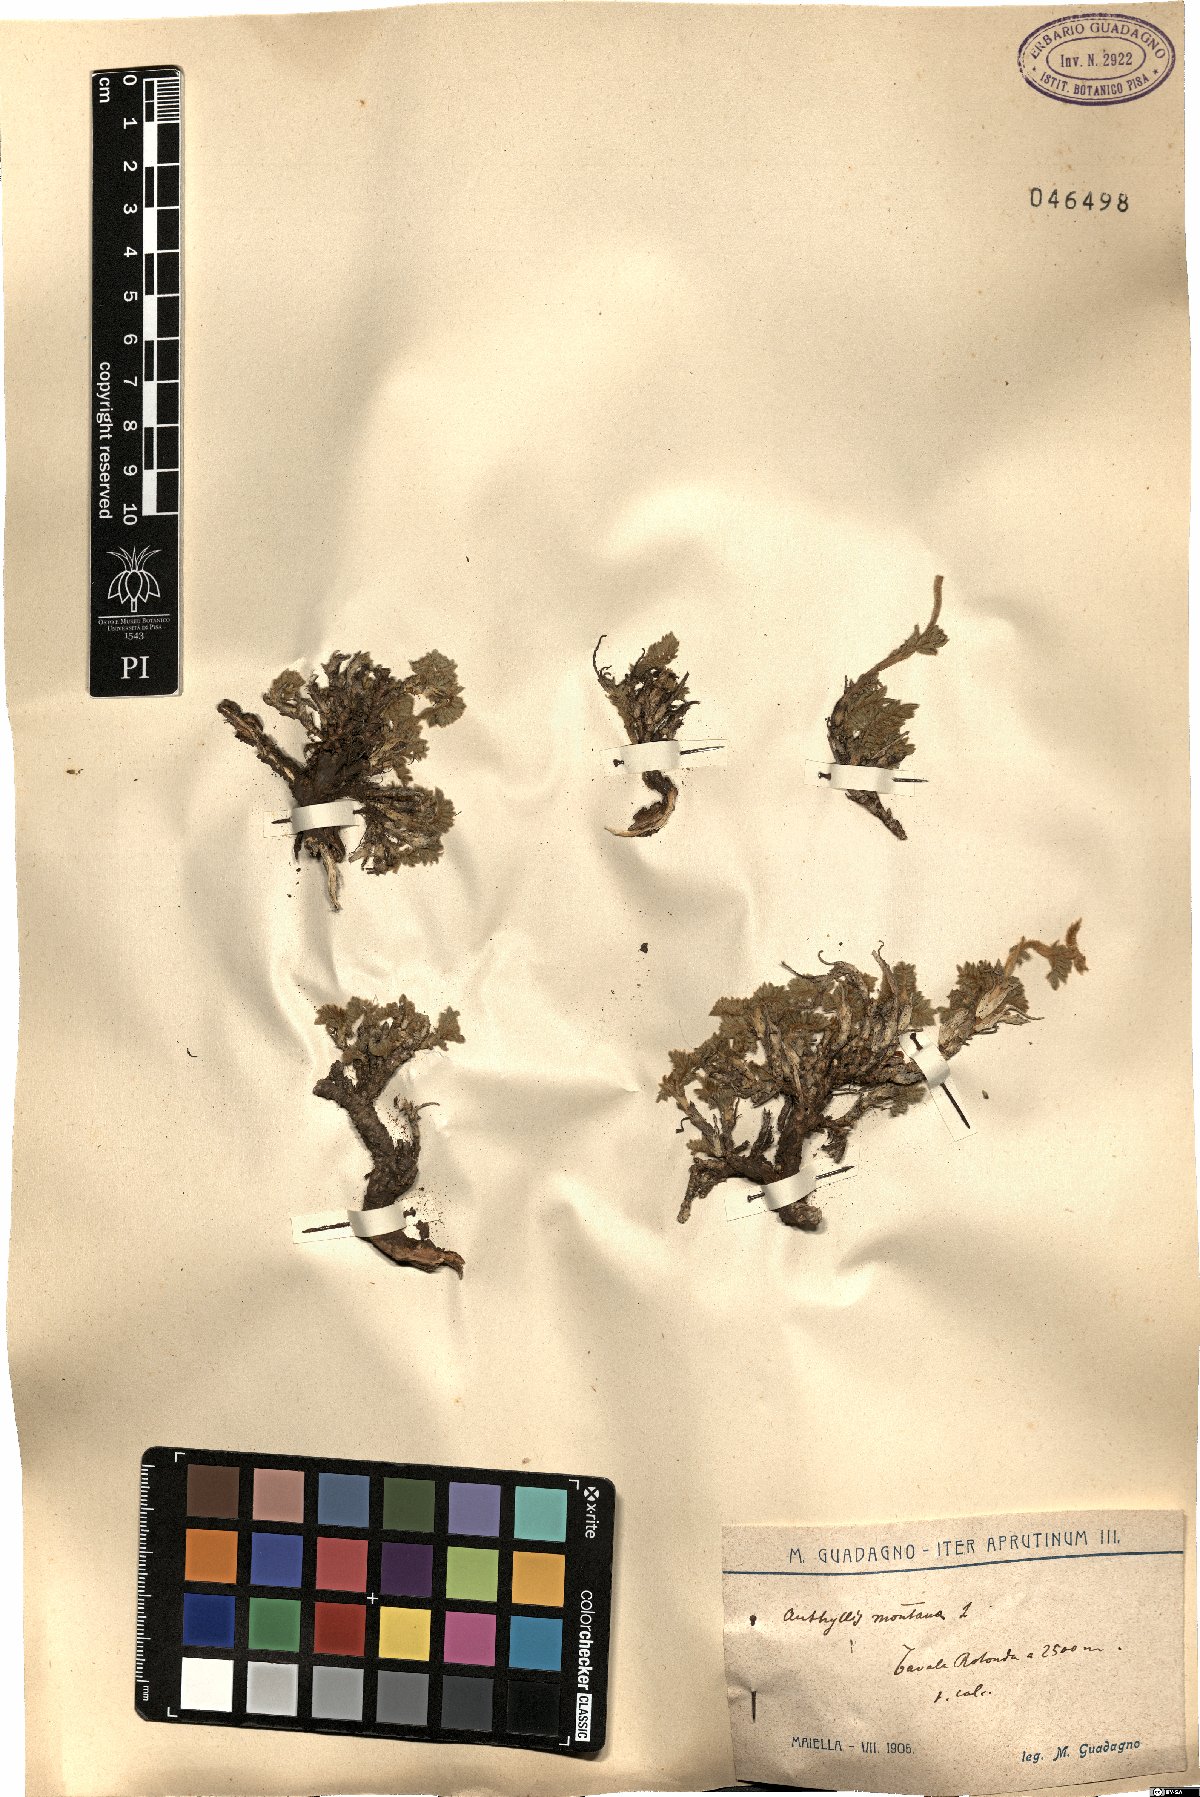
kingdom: Plantae
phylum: Tracheophyta
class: Magnoliopsida
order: Fabales
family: Fabaceae
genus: Anthyllis
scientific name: Anthyllis montana
